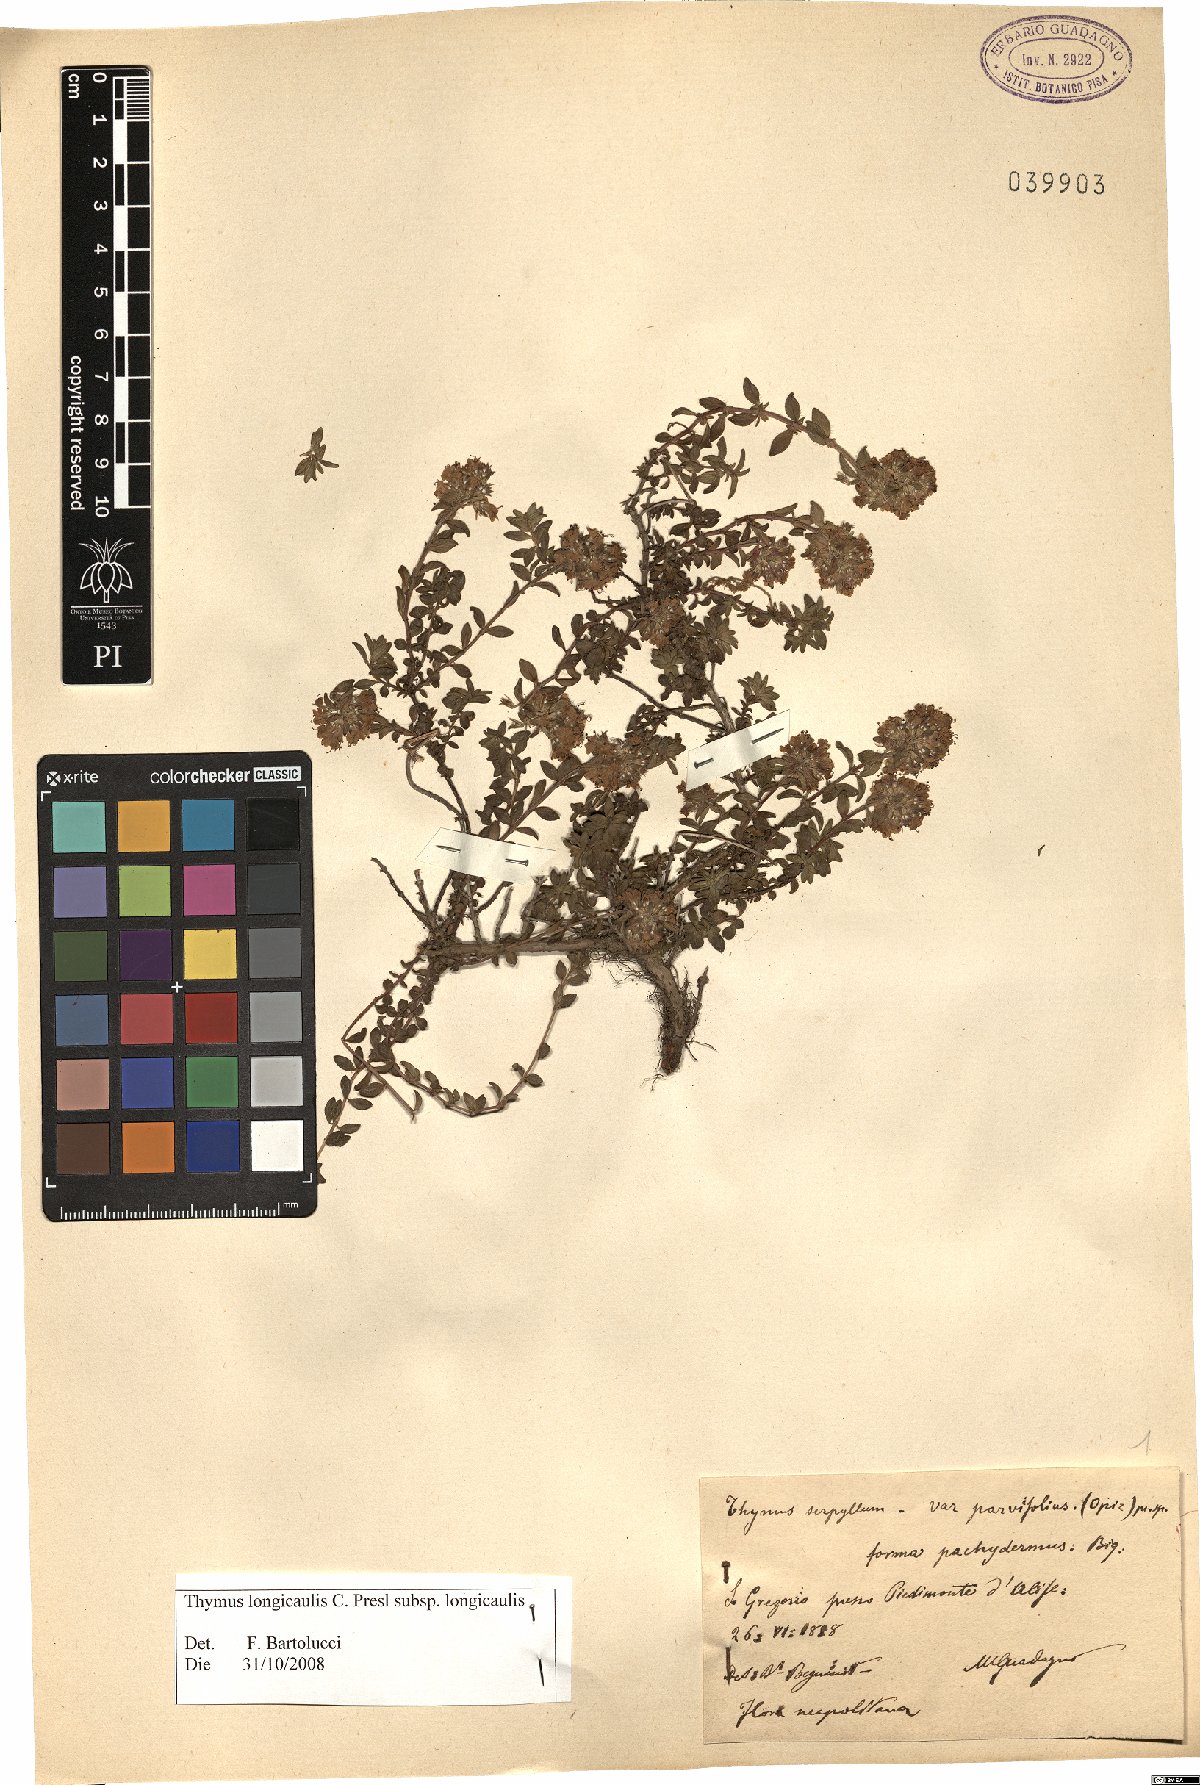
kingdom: Plantae
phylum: Tracheophyta
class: Magnoliopsida
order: Lamiales
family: Lamiaceae
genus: Thymus
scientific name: Thymus longicaulis
